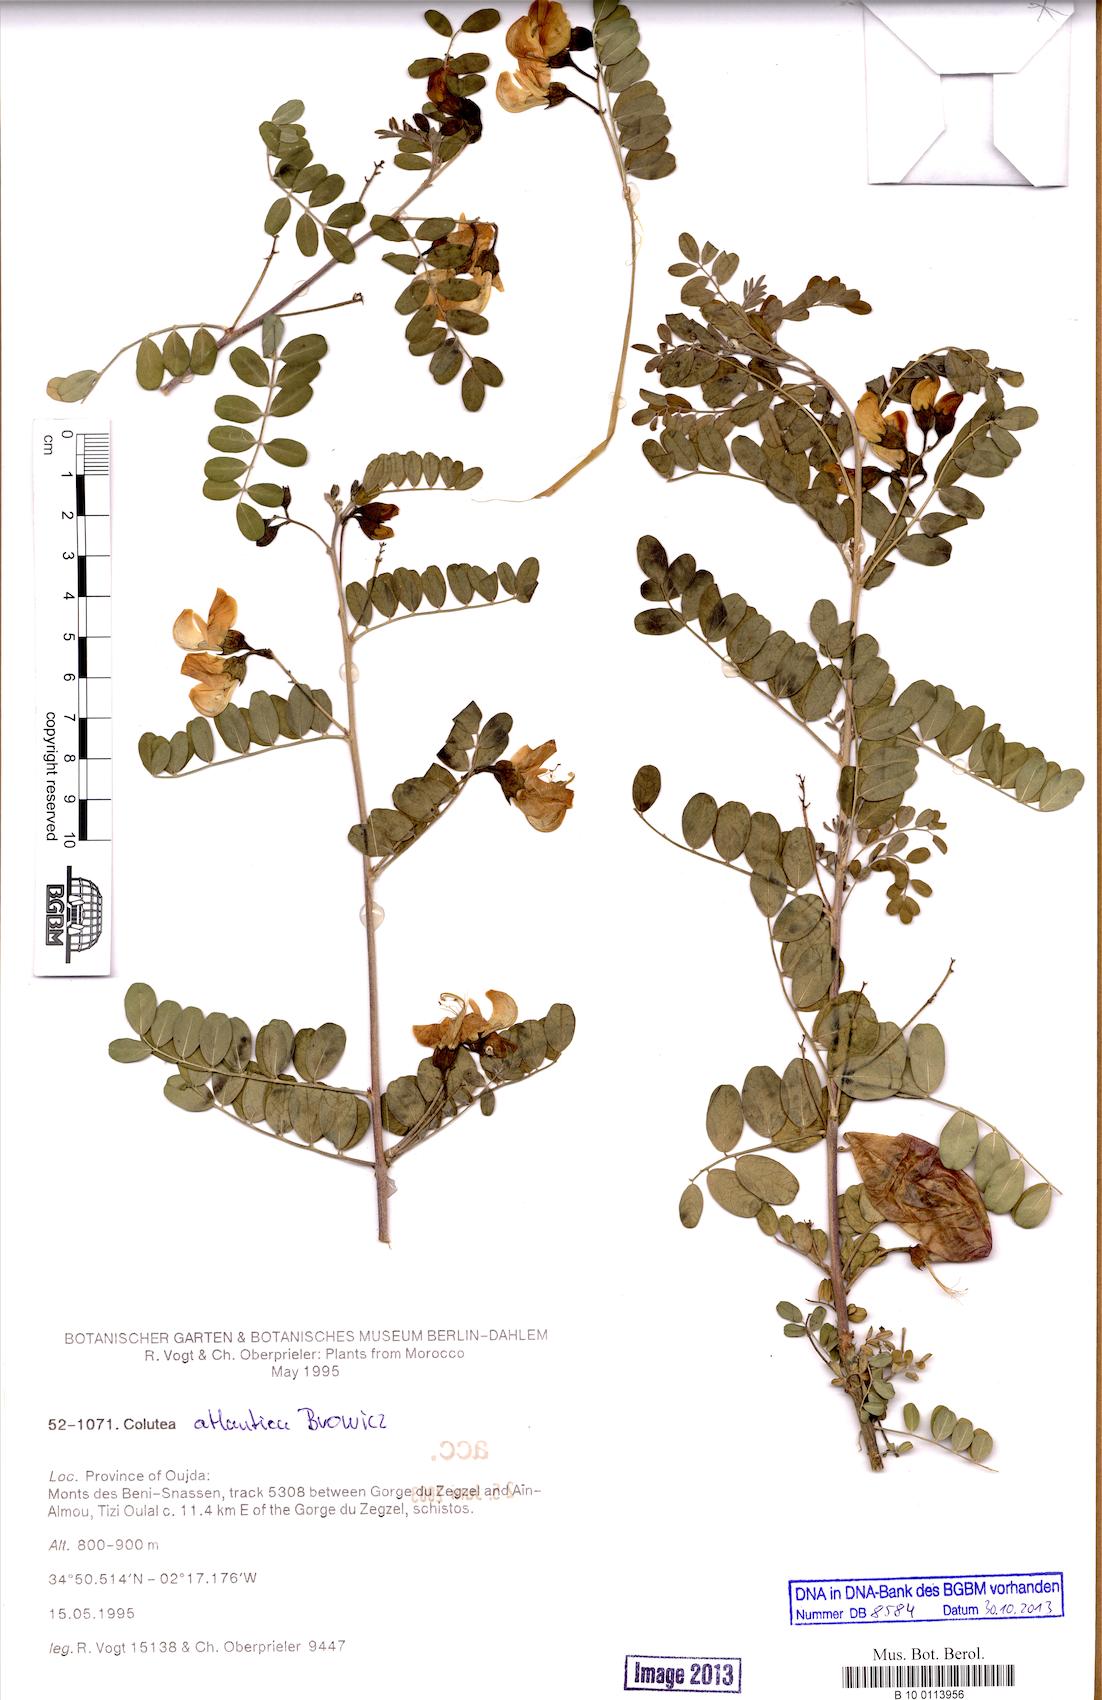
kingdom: Plantae
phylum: Tracheophyta
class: Magnoliopsida
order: Fabales
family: Fabaceae
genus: Colutea
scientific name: Colutea atlantica
